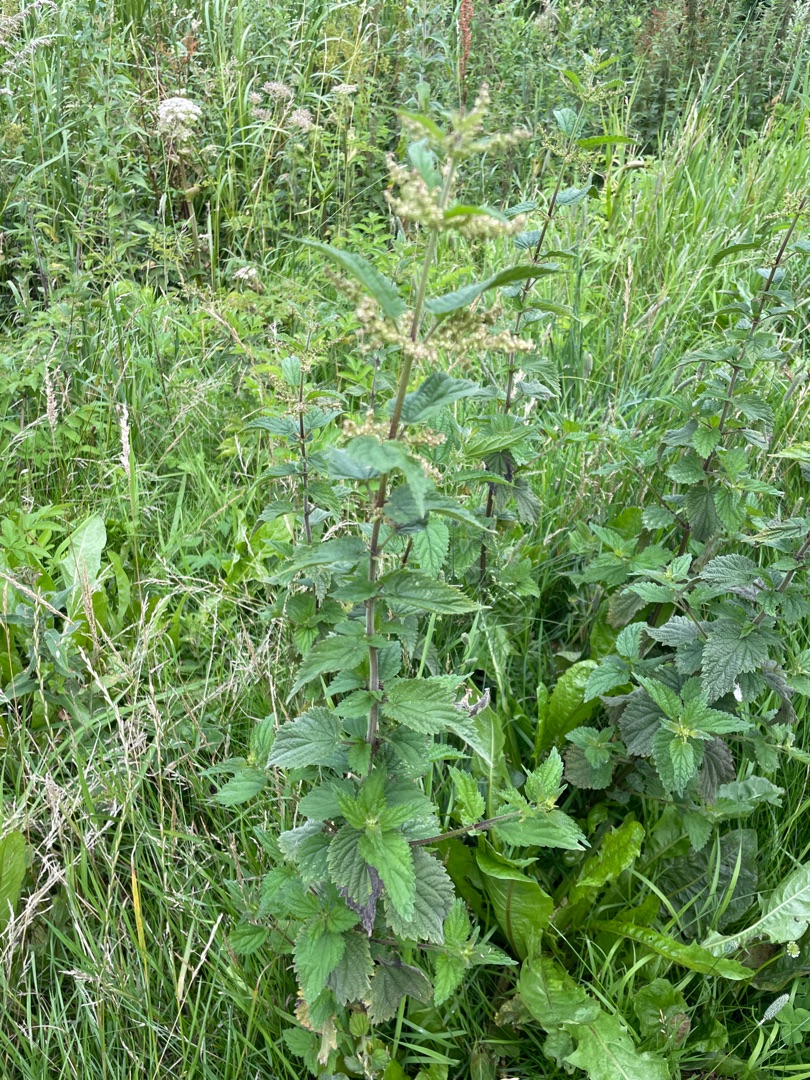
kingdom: Plantae
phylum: Tracheophyta
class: Magnoliopsida
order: Rosales
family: Urticaceae
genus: Urtica
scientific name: Urtica dioica
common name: Stor nælde
